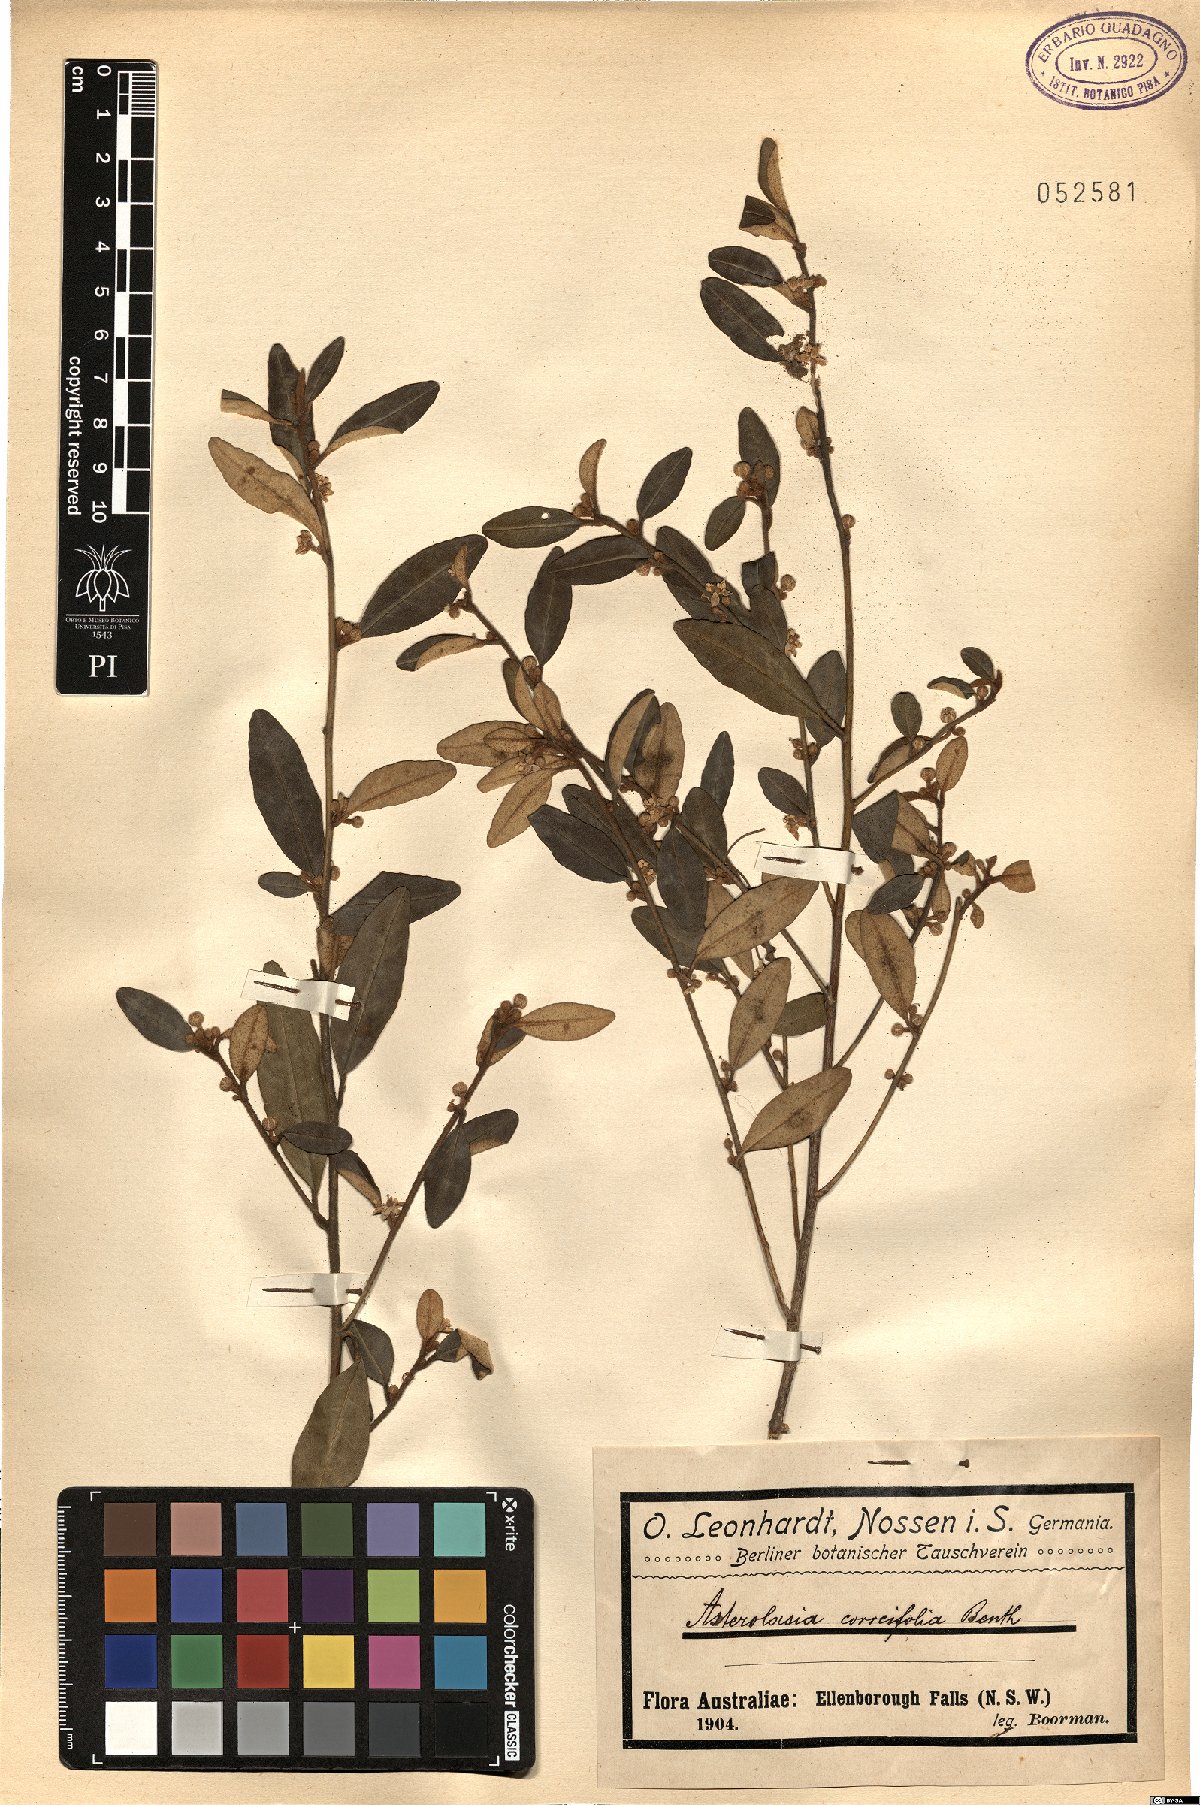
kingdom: Plantae
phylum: Tracheophyta
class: Magnoliopsida
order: Sapindales
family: Rutaceae
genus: Asterolasia
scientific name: Asterolasia correifolia
